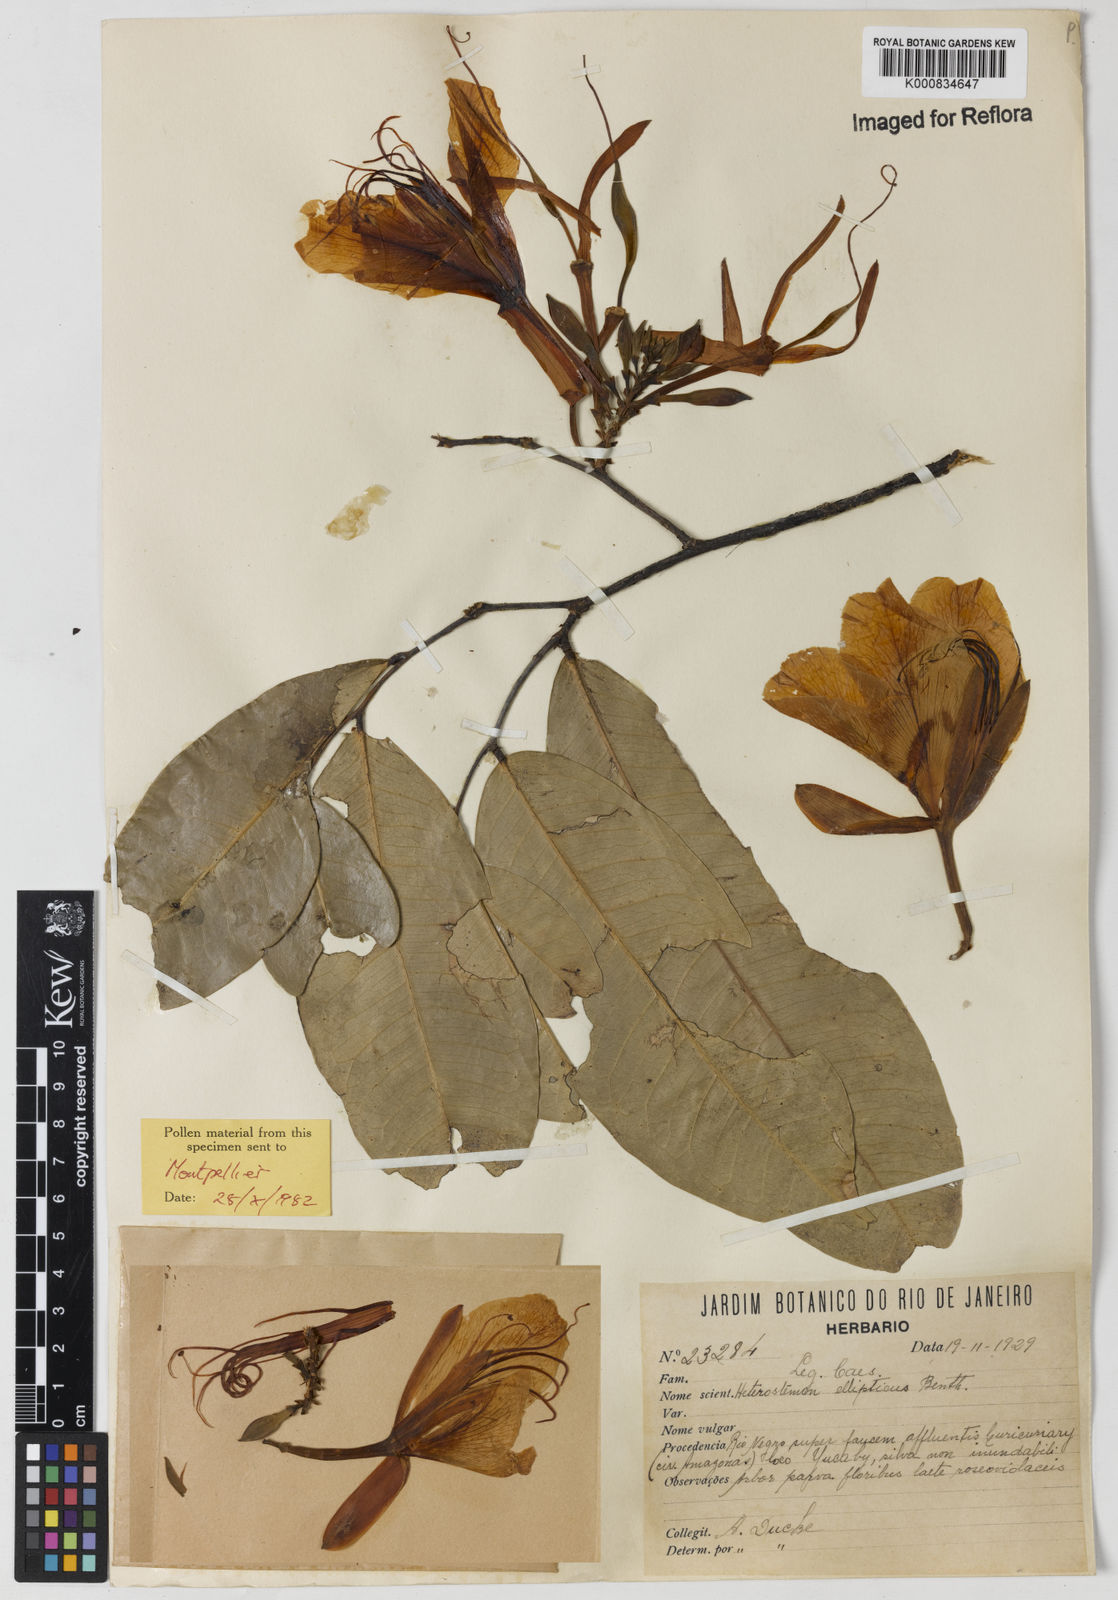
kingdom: Plantae
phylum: Tracheophyta
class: Magnoliopsida
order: Fabales
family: Fabaceae
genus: Heterostemon
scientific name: Heterostemon ellipticus
